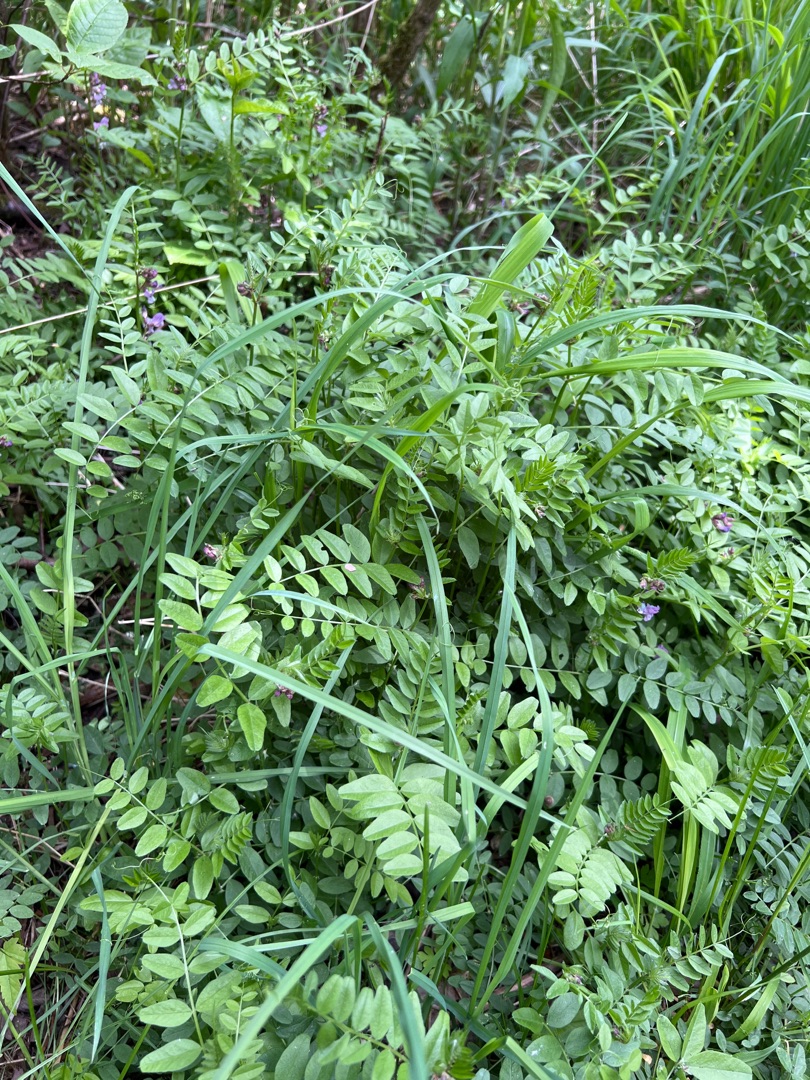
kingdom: Plantae
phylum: Tracheophyta
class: Magnoliopsida
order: Fabales
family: Fabaceae
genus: Vicia
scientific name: Vicia sepium
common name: Gærde-vikke
